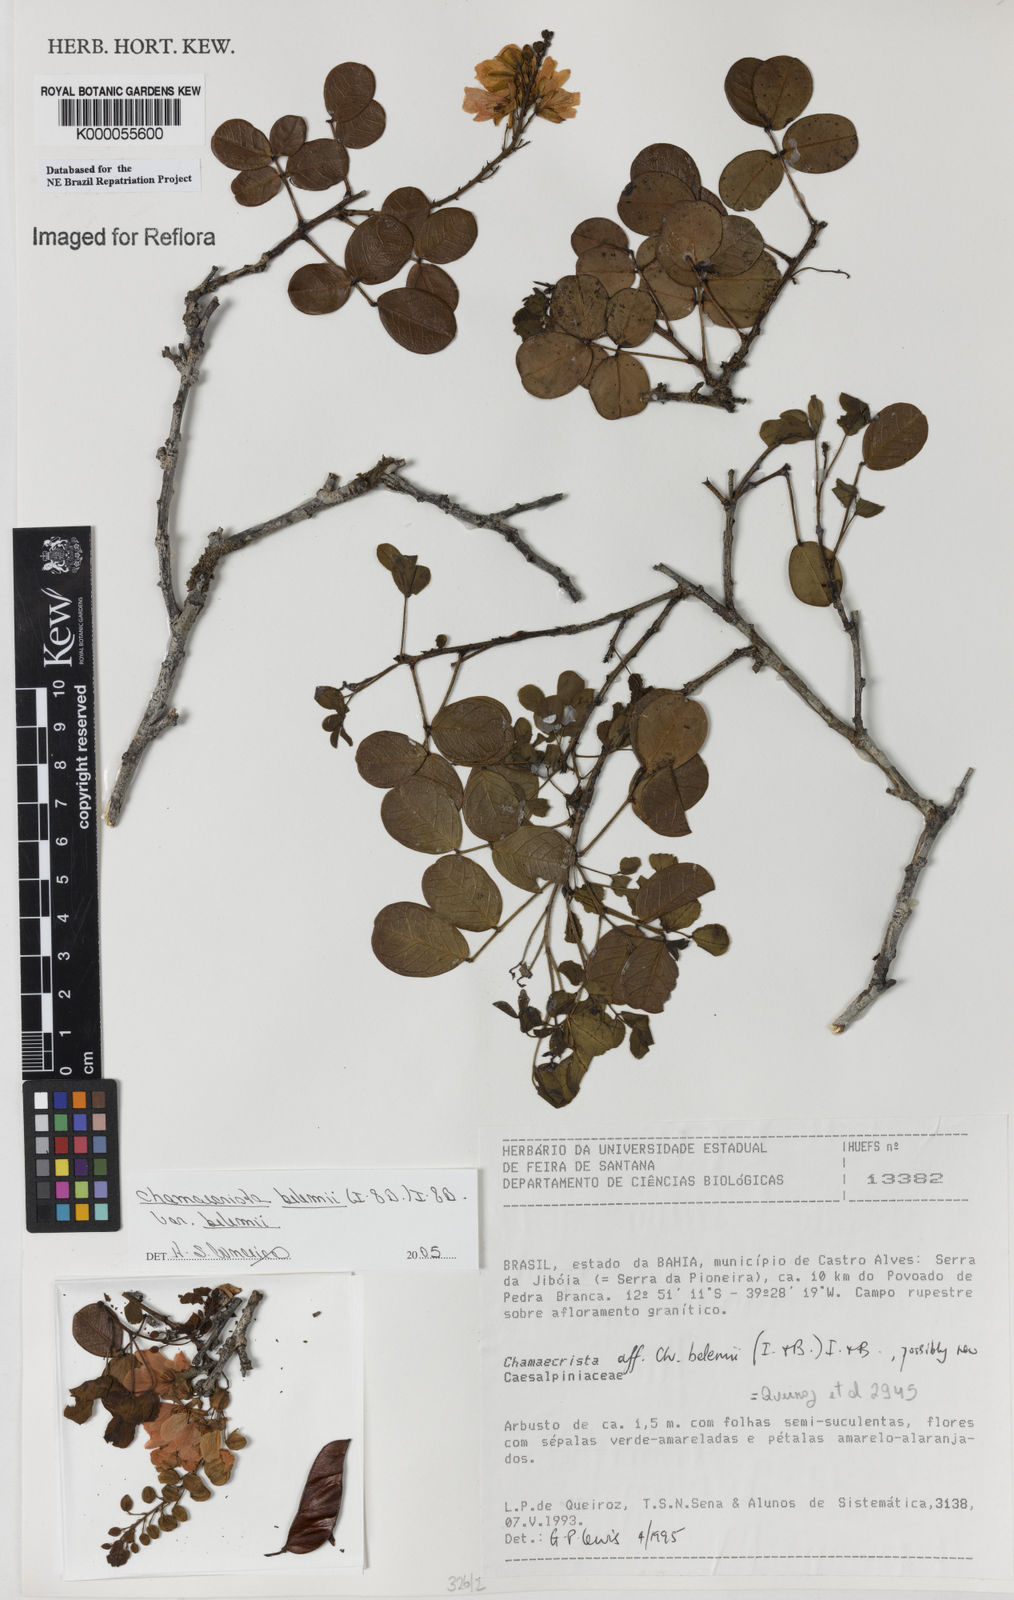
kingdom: Plantae
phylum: Tracheophyta
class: Magnoliopsida
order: Fabales
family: Fabaceae
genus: Chamaecrista
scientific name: Chamaecrista belemii
